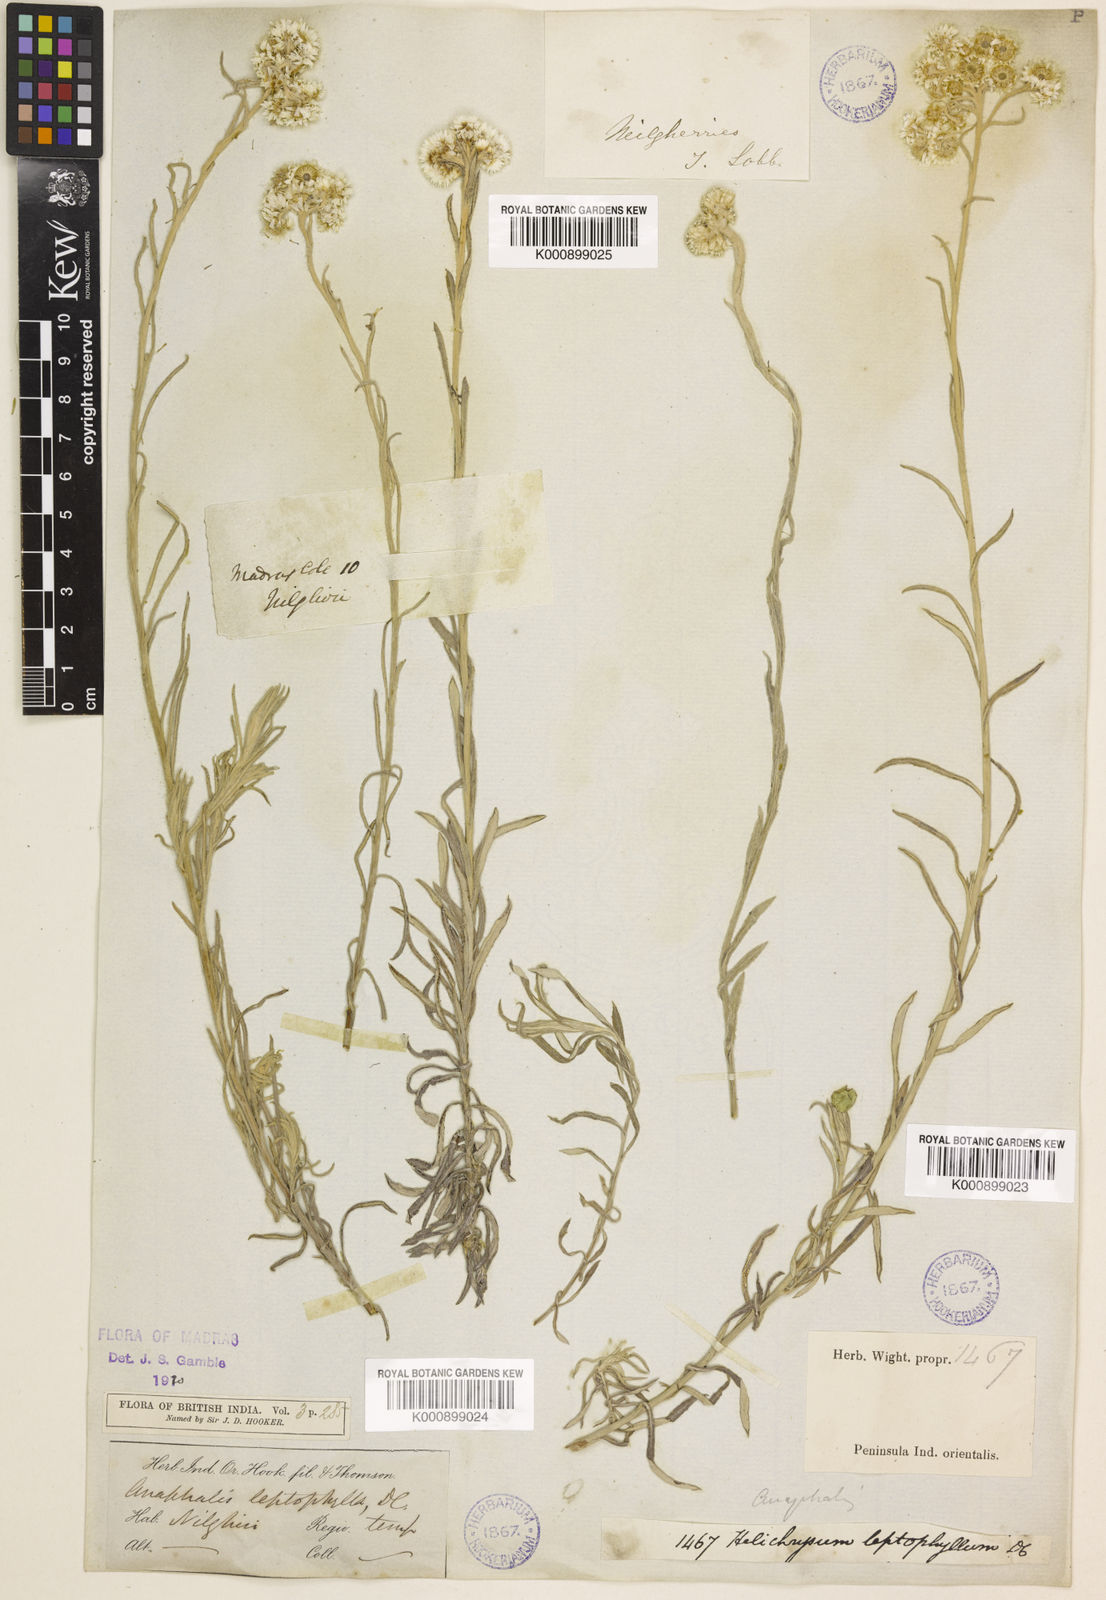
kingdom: Plantae
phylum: Tracheophyta
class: Magnoliopsida
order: Asterales
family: Asteraceae
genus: Anaphalis
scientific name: Anaphalis leptophylla
